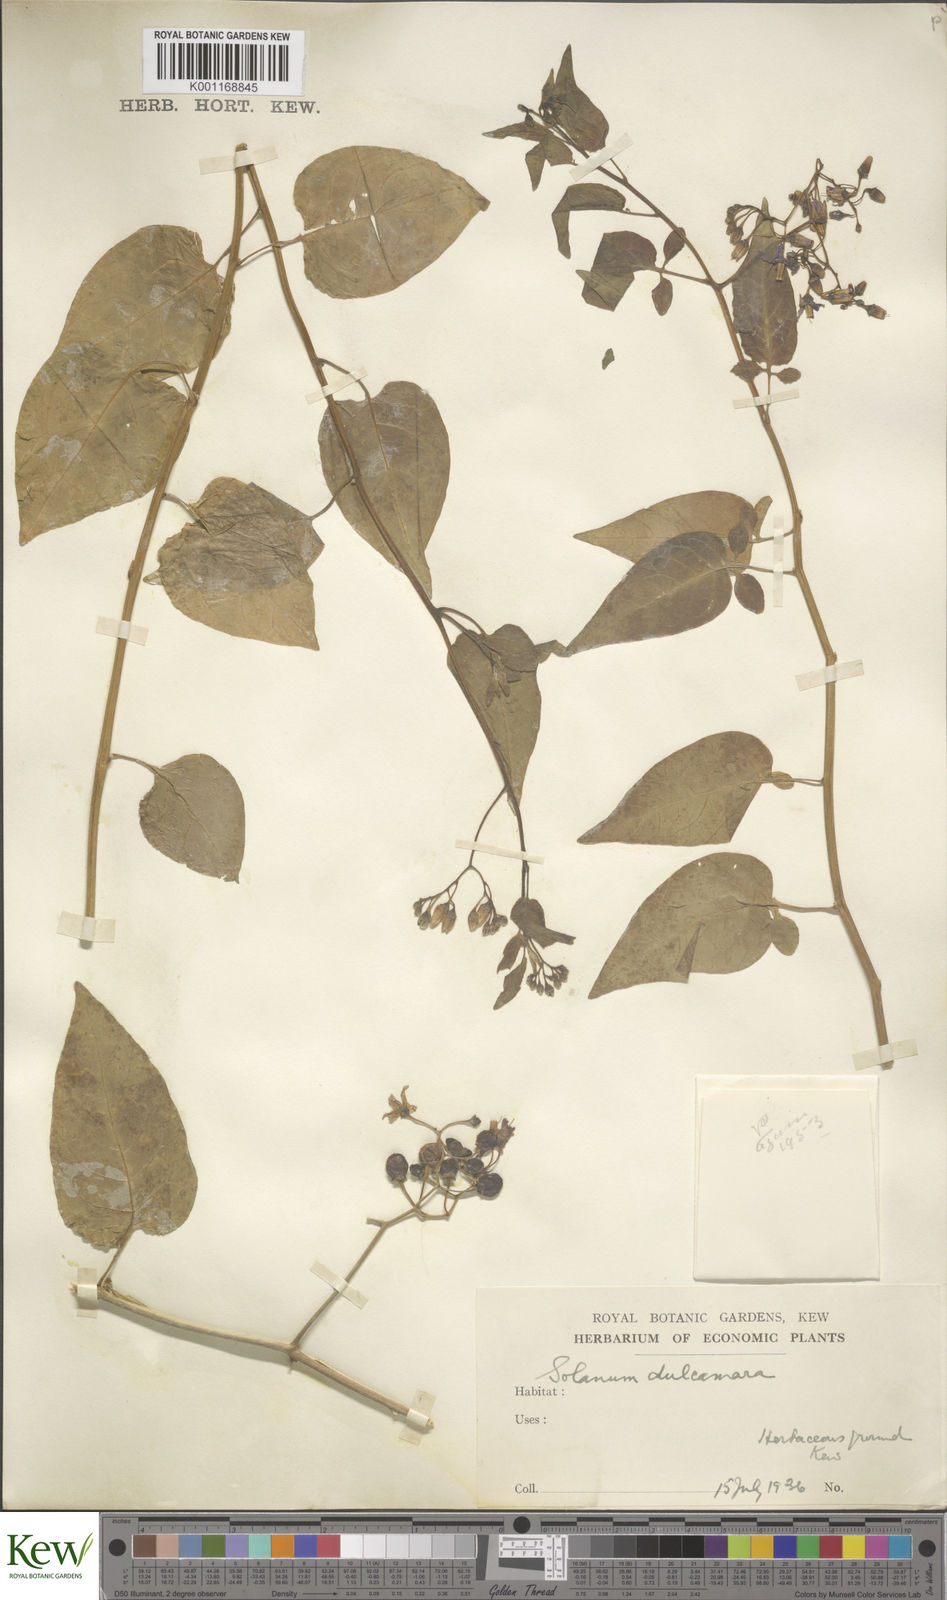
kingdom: Plantae
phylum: Tracheophyta
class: Magnoliopsida
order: Solanales
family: Solanaceae
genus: Solanum
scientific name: Solanum dulcamara
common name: Climbing nightshade
